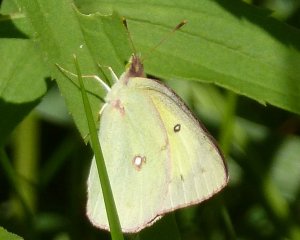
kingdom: Animalia
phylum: Arthropoda
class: Insecta
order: Lepidoptera
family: Pieridae
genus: Colias
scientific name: Colias philodice
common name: Clouded Sulphur
